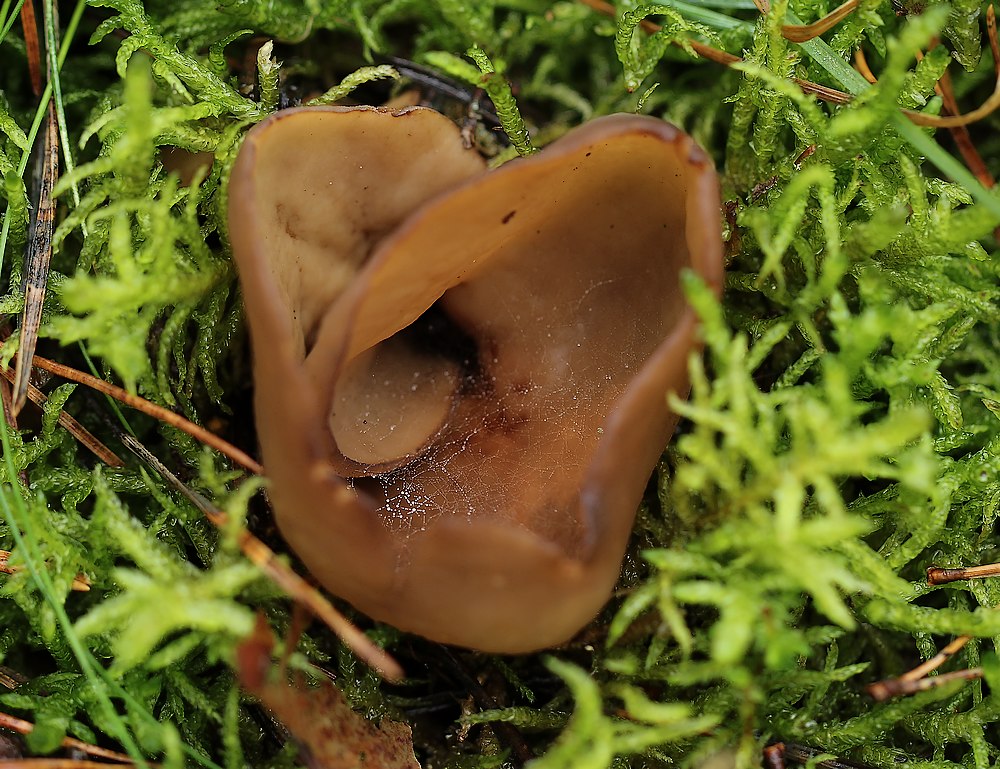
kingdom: Fungi
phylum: Ascomycota
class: Pezizomycetes
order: Pezizales
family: Otideaceae
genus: Otidea
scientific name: Otidea alutacea
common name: læder-ørebæger
